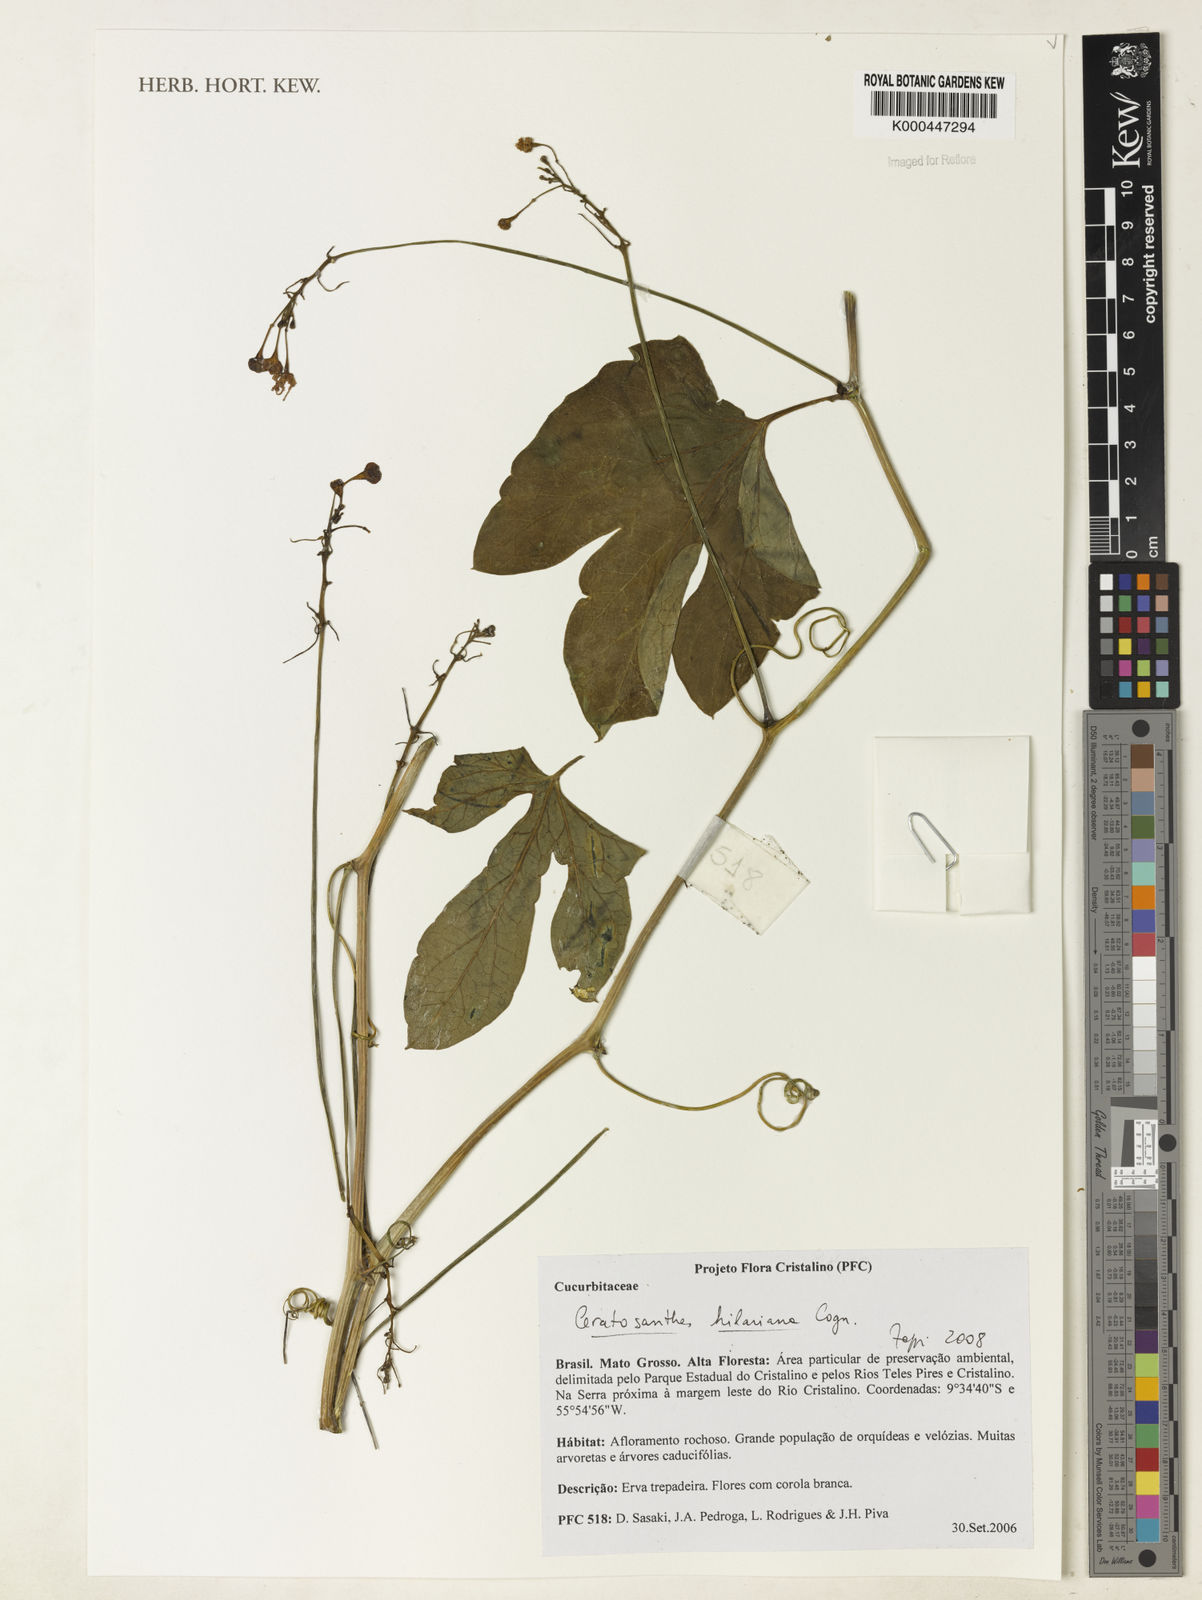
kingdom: Plantae
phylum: Tracheophyta
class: Magnoliopsida
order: Cucurbitales
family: Cucurbitaceae
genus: Ceratosanthes
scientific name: Ceratosanthes hilariana
